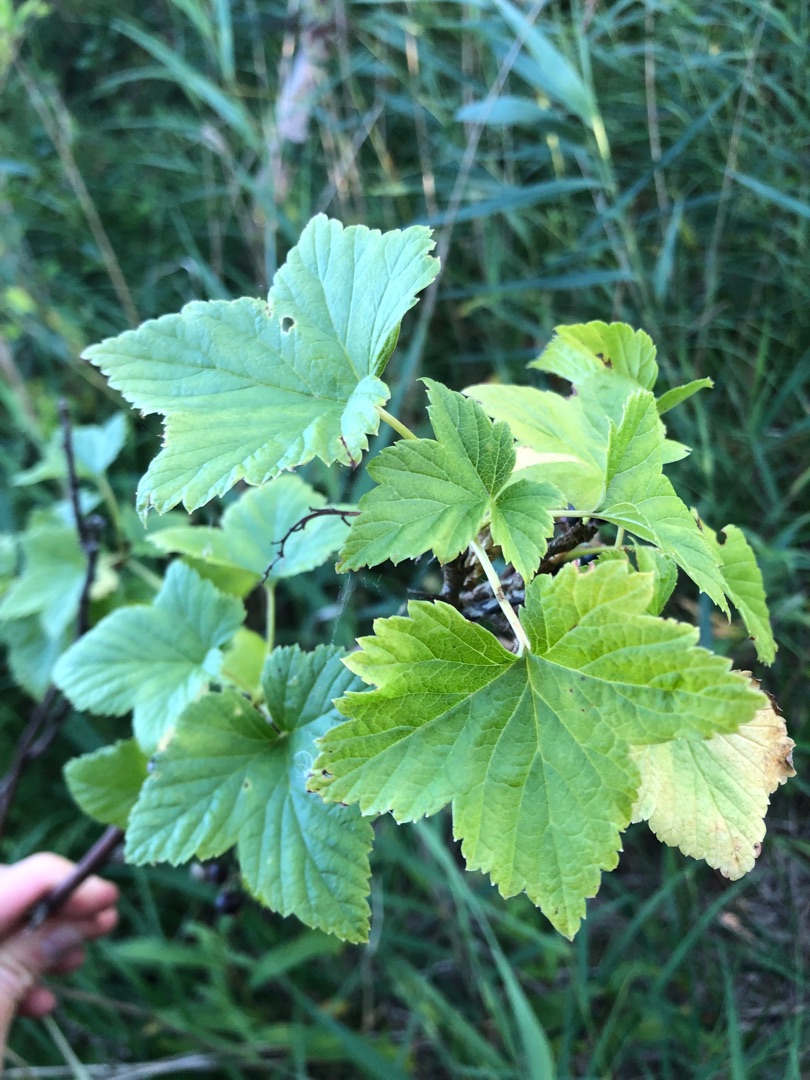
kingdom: Plantae
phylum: Tracheophyta
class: Magnoliopsida
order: Saxifragales
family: Grossulariaceae
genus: Ribes
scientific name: Ribes nigrum
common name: Solbær
